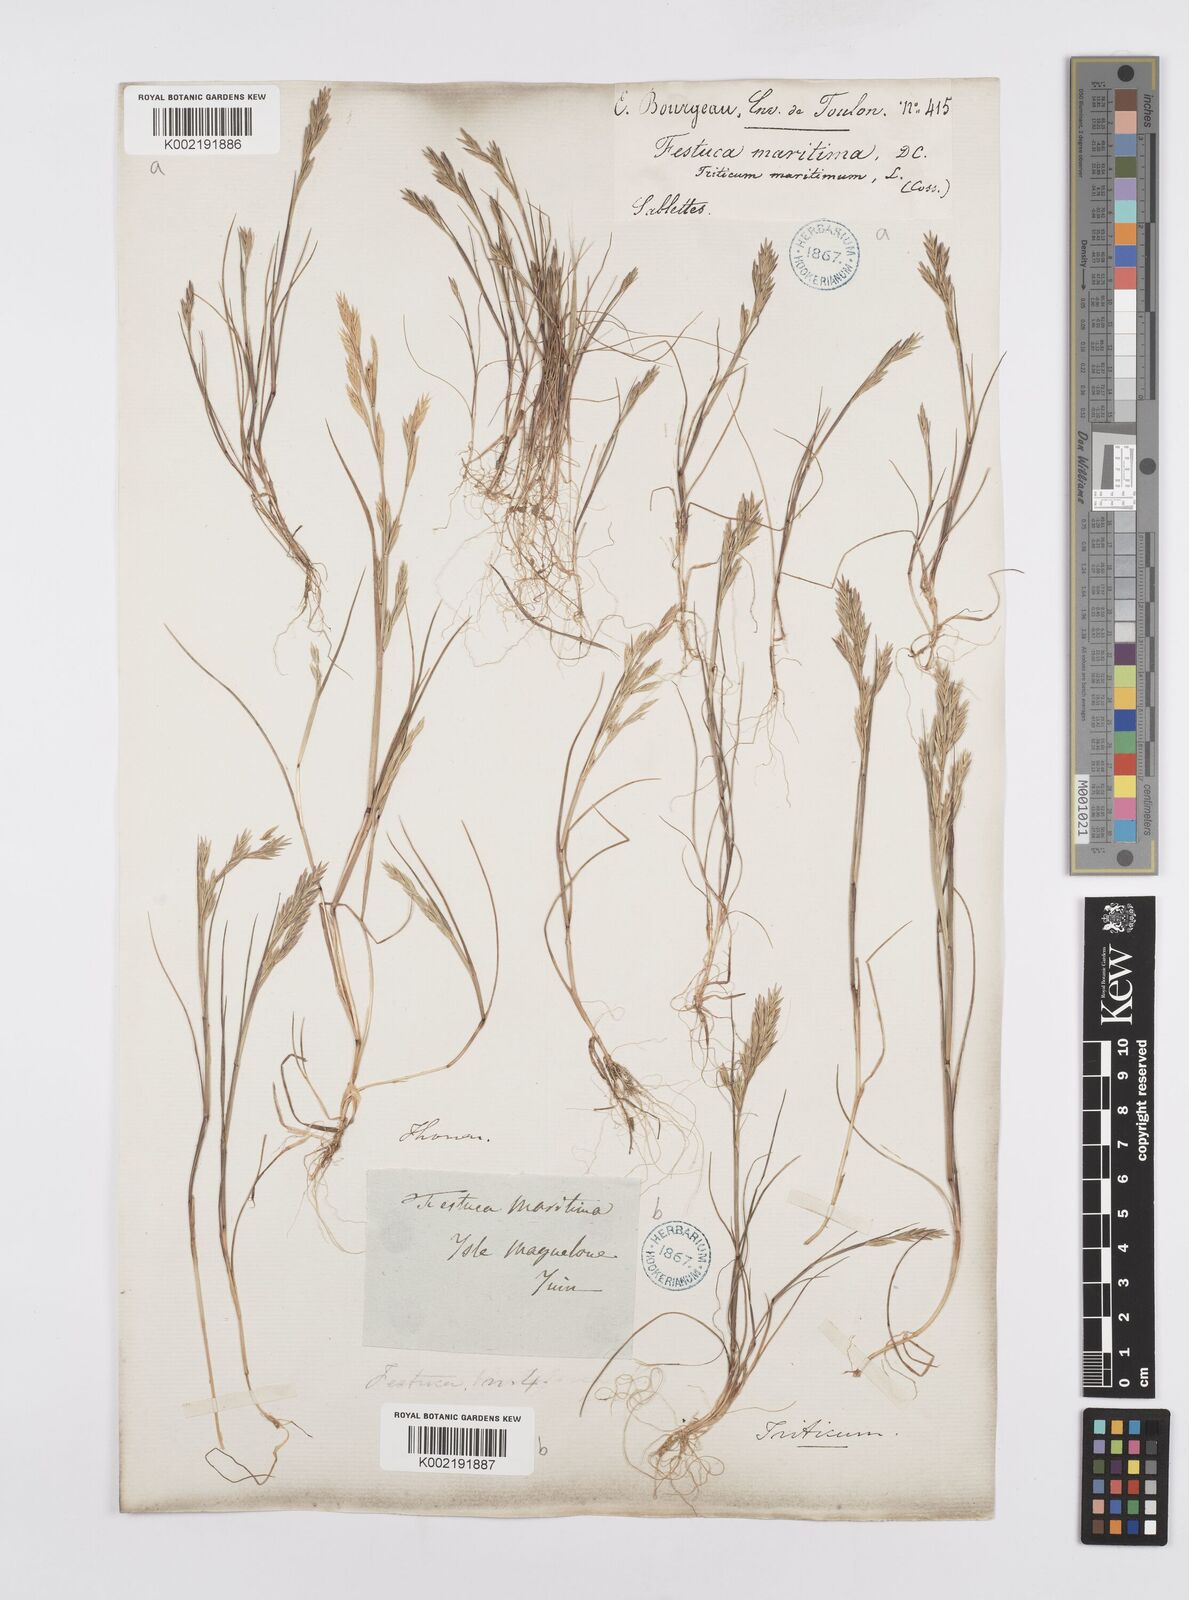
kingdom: Plantae
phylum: Tracheophyta
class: Liliopsida
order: Poales
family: Poaceae
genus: Cutandia
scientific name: Cutandia maritima
